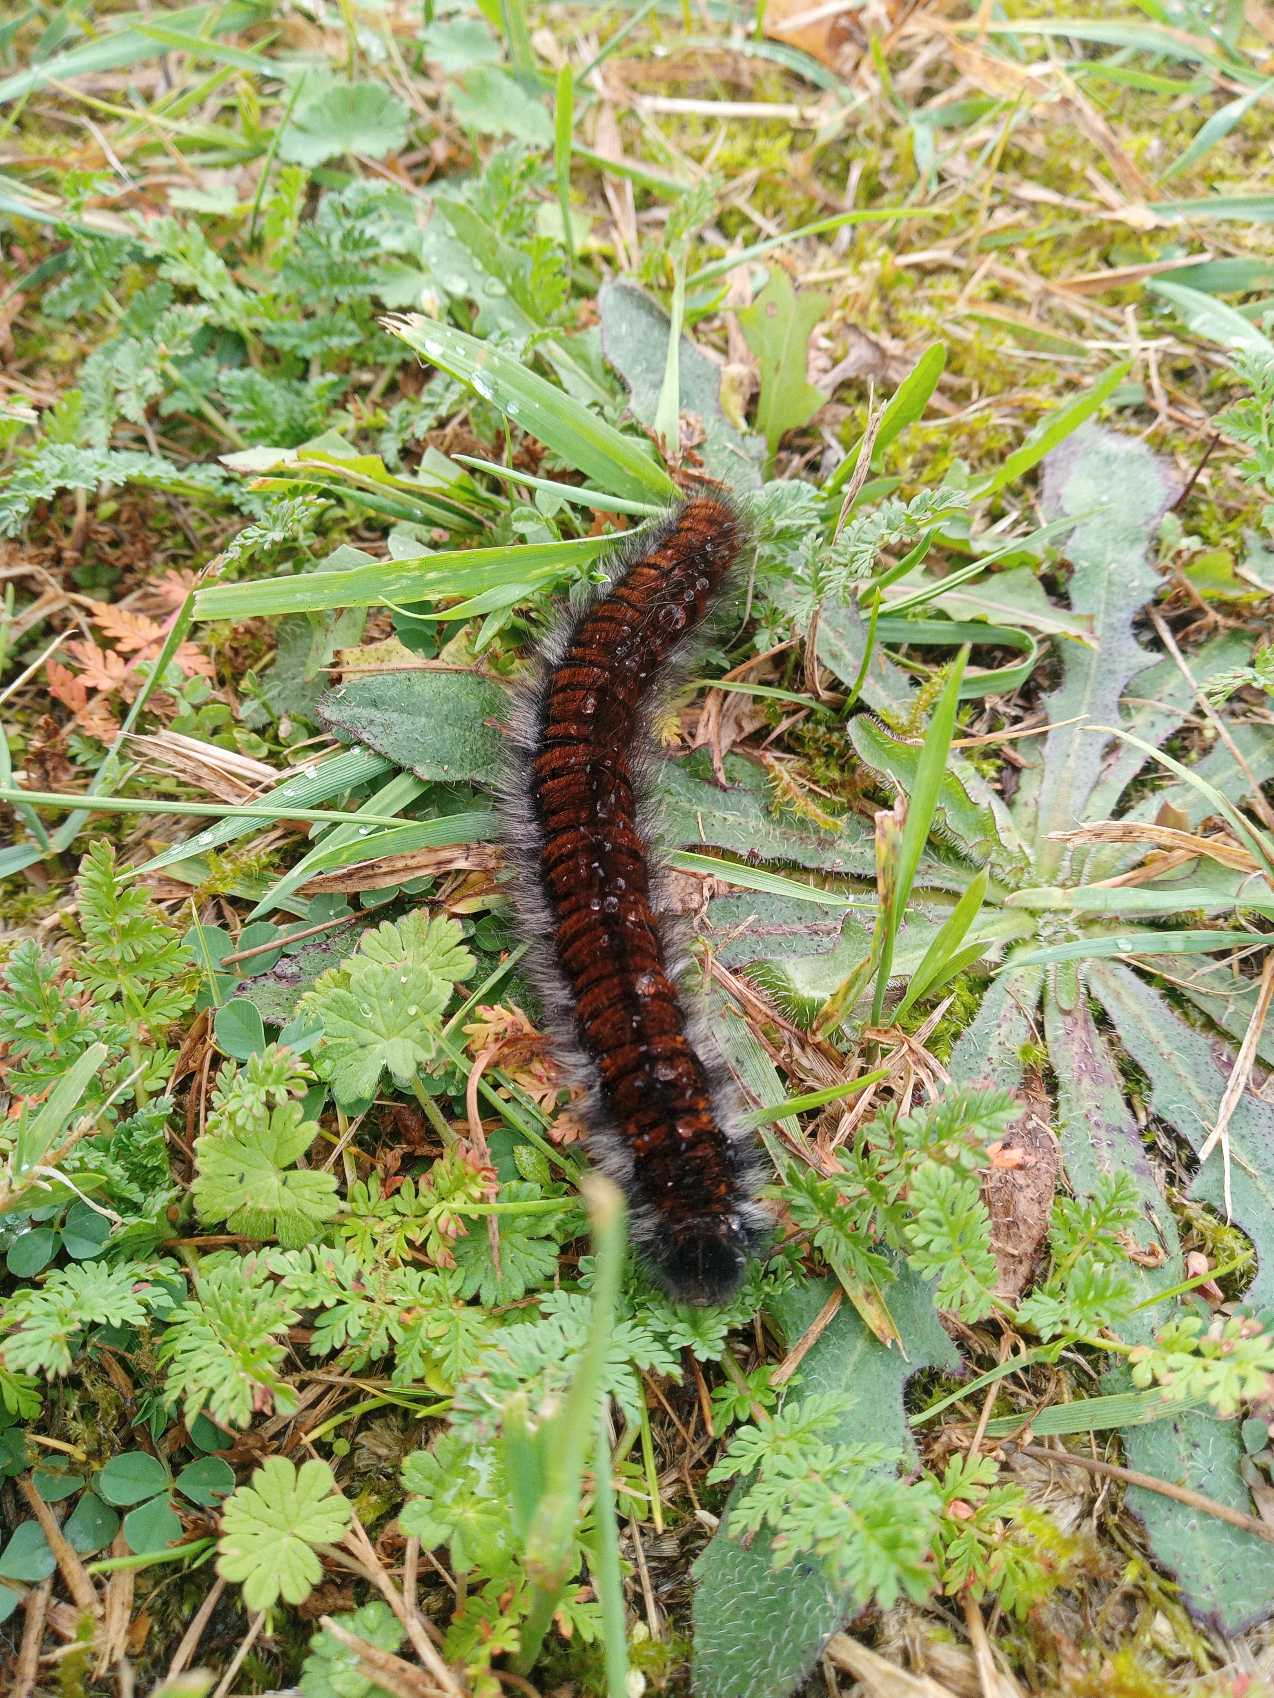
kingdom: Animalia
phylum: Arthropoda
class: Insecta
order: Lepidoptera
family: Lasiocampidae
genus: Macrothylacia
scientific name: Macrothylacia rubi
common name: Brombærspinder
